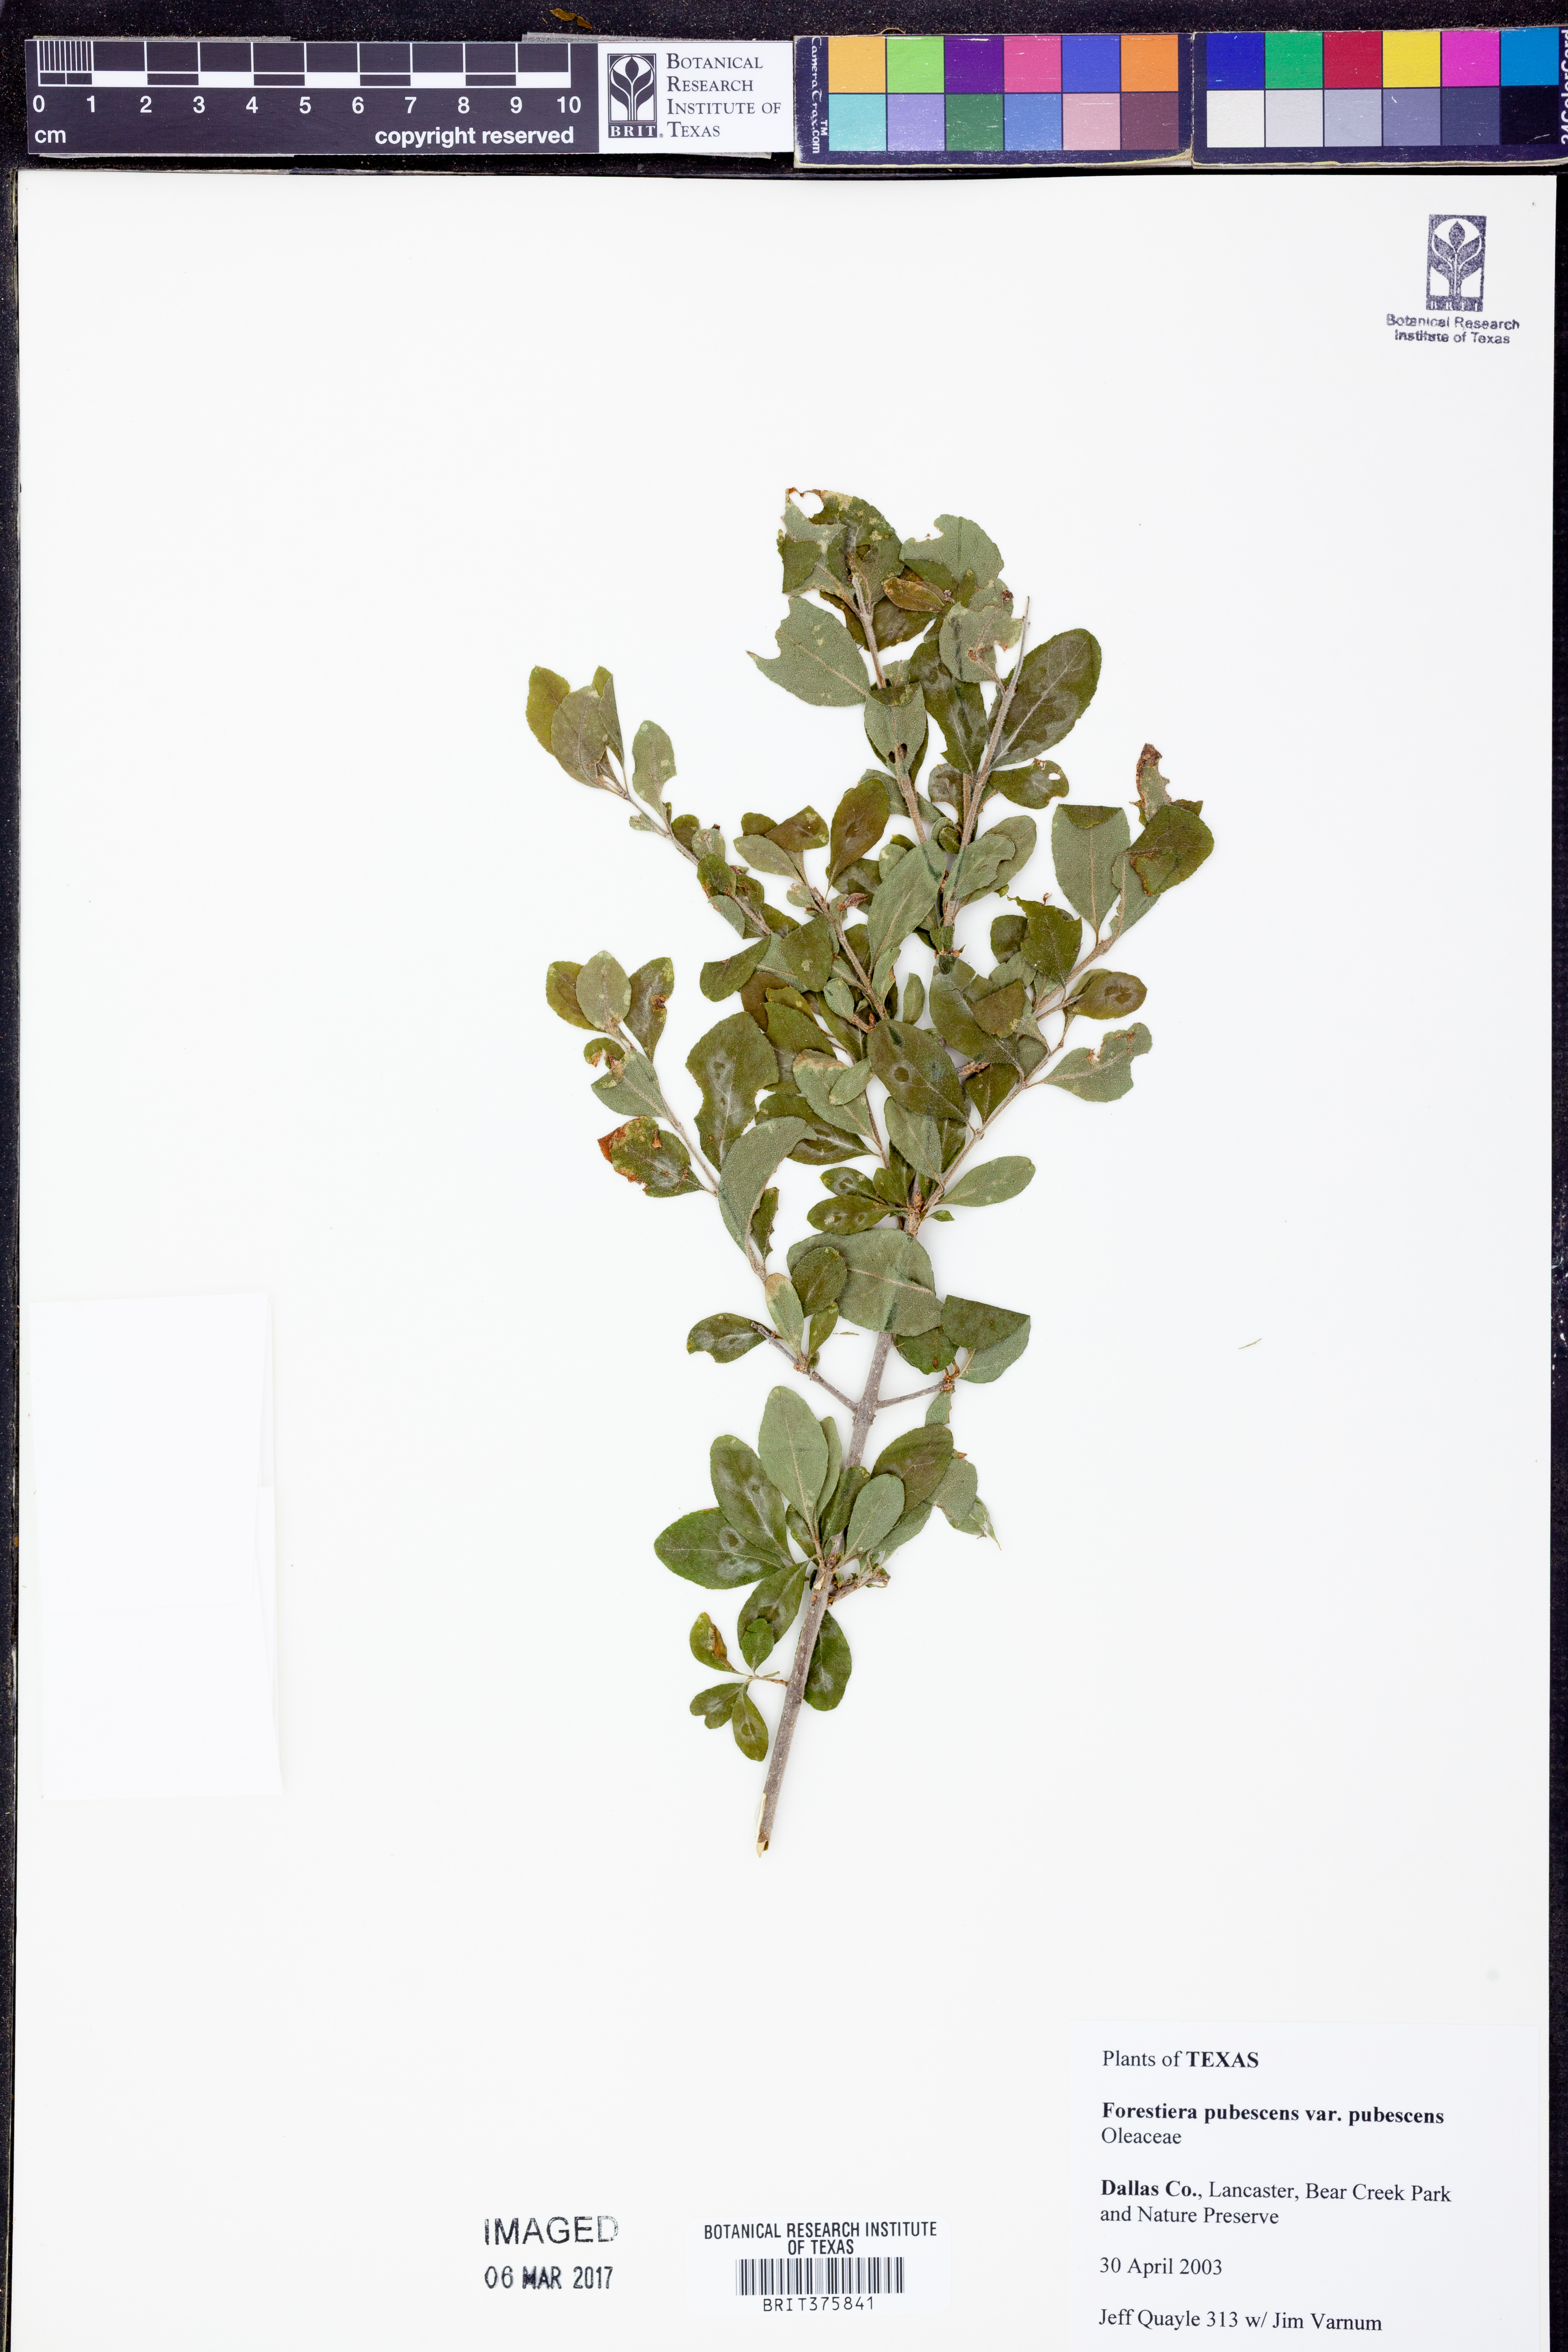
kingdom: Plantae
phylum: Tracheophyta
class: Magnoliopsida
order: Lamiales
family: Oleaceae
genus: Forestiera
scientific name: Forestiera pubescens
